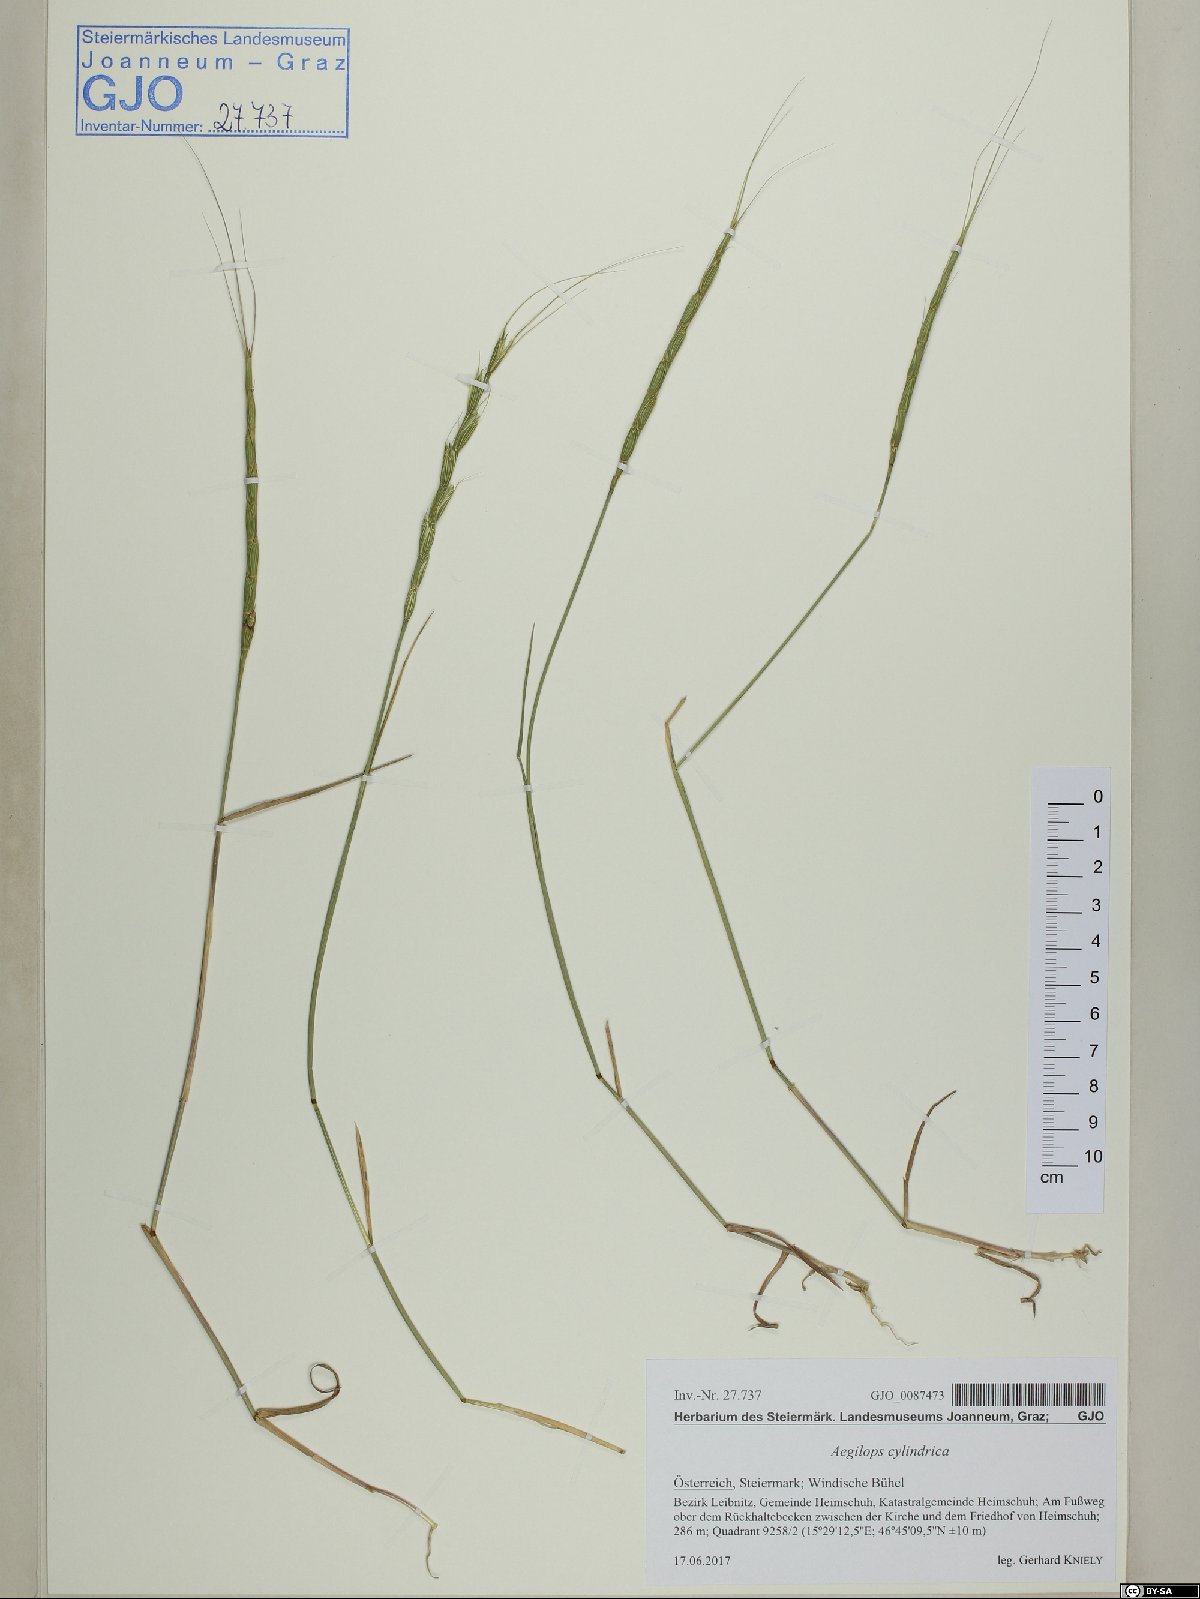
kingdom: Plantae
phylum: Tracheophyta
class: Liliopsida
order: Poales
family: Poaceae
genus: Aegilops
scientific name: Aegilops cylindrica
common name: Jointed goatgrass
